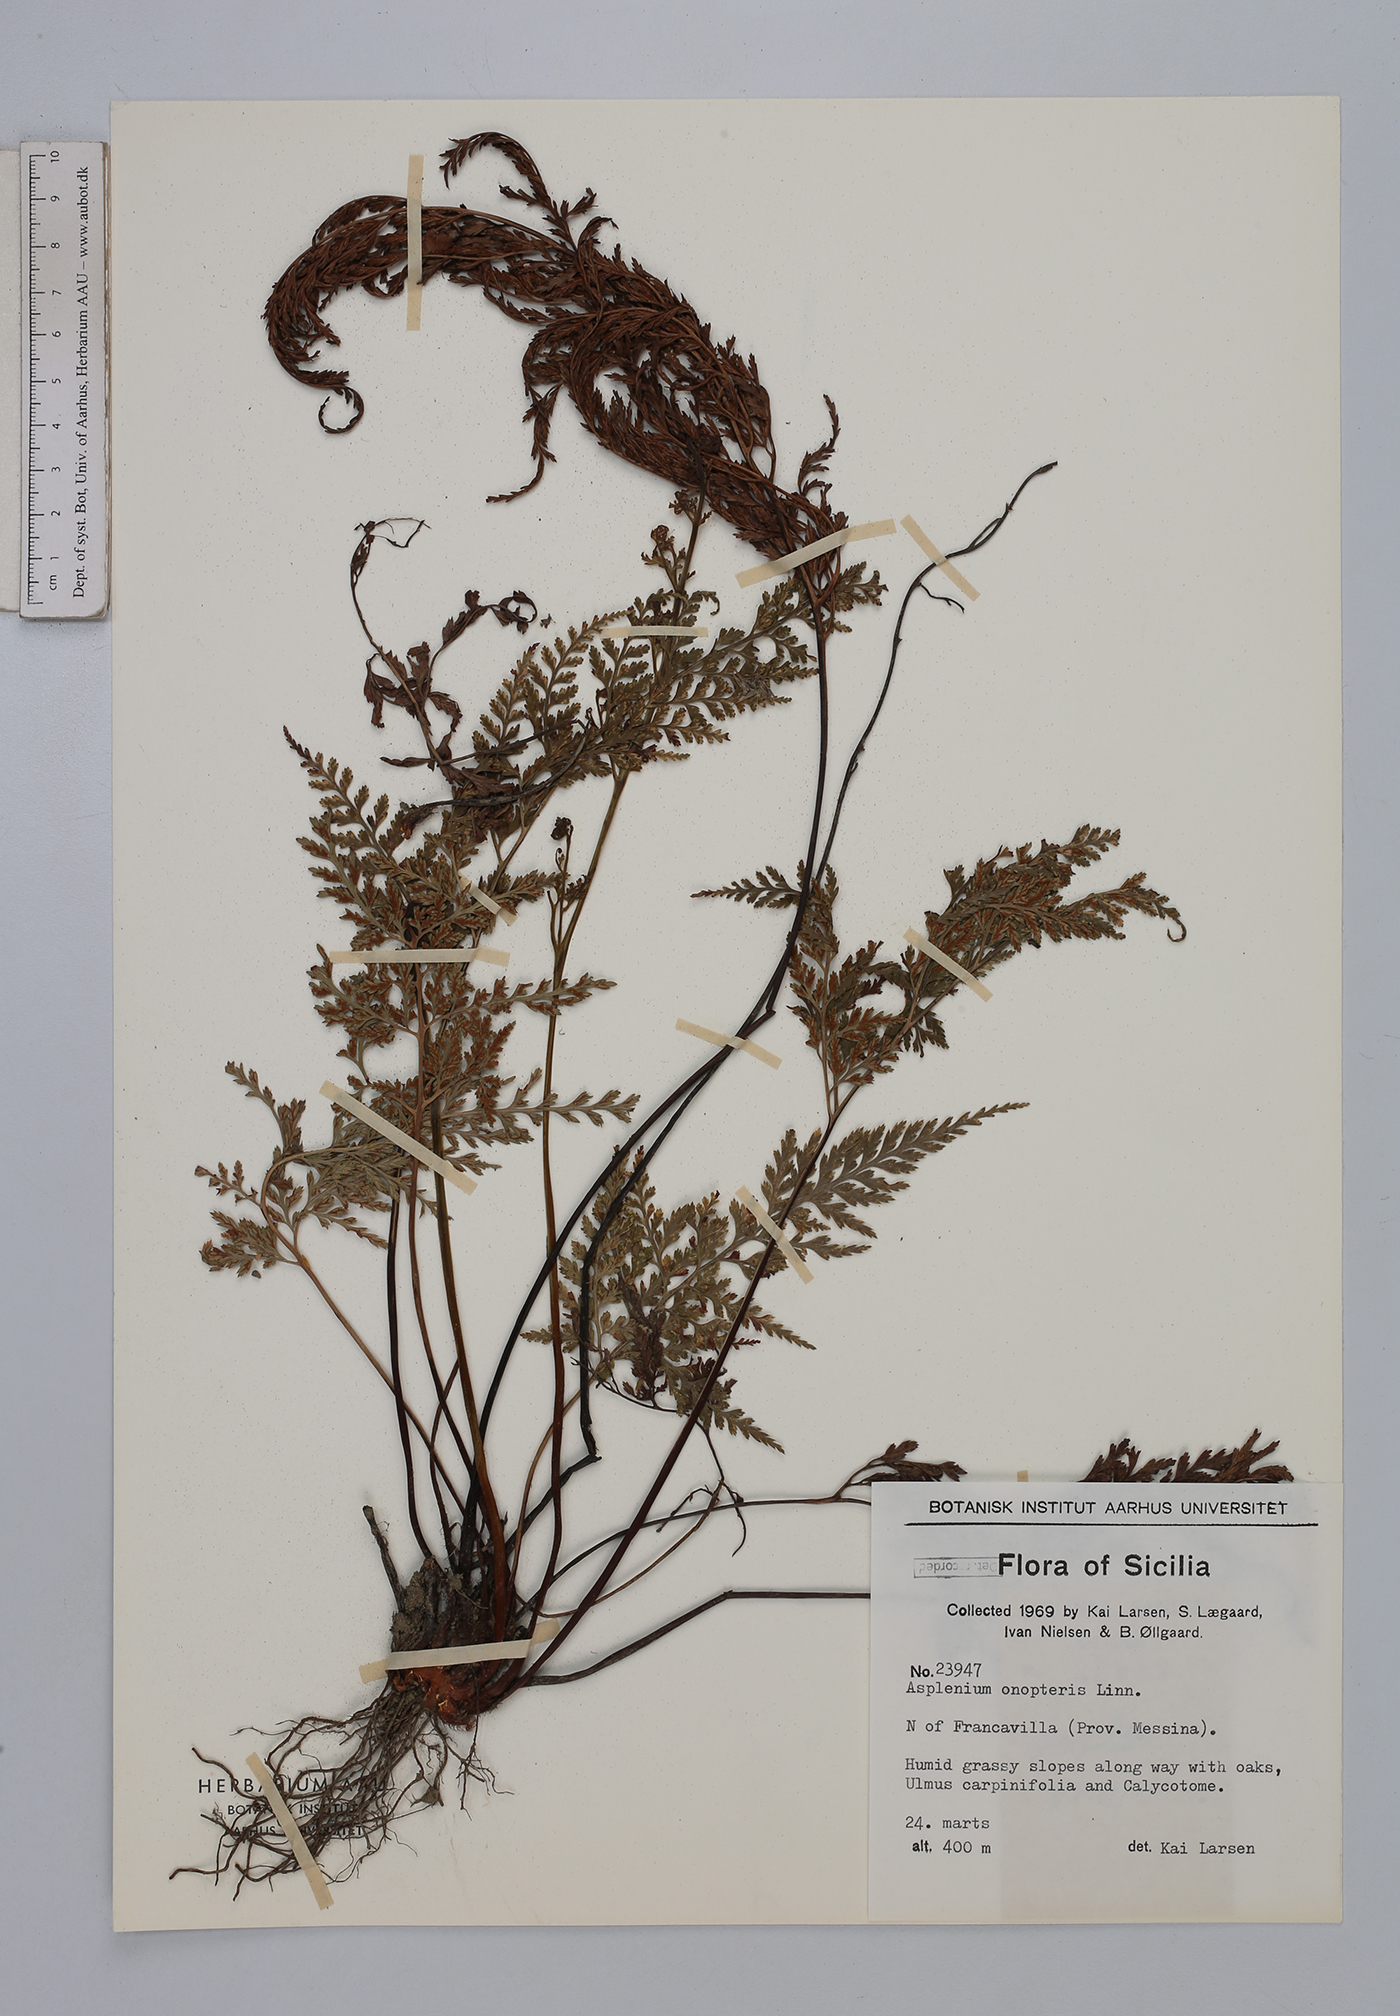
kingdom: Plantae
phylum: Tracheophyta
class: Polypodiopsida
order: Polypodiales
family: Aspleniaceae
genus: Asplenium
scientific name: Asplenium onopteris
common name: Irish spleenwort
